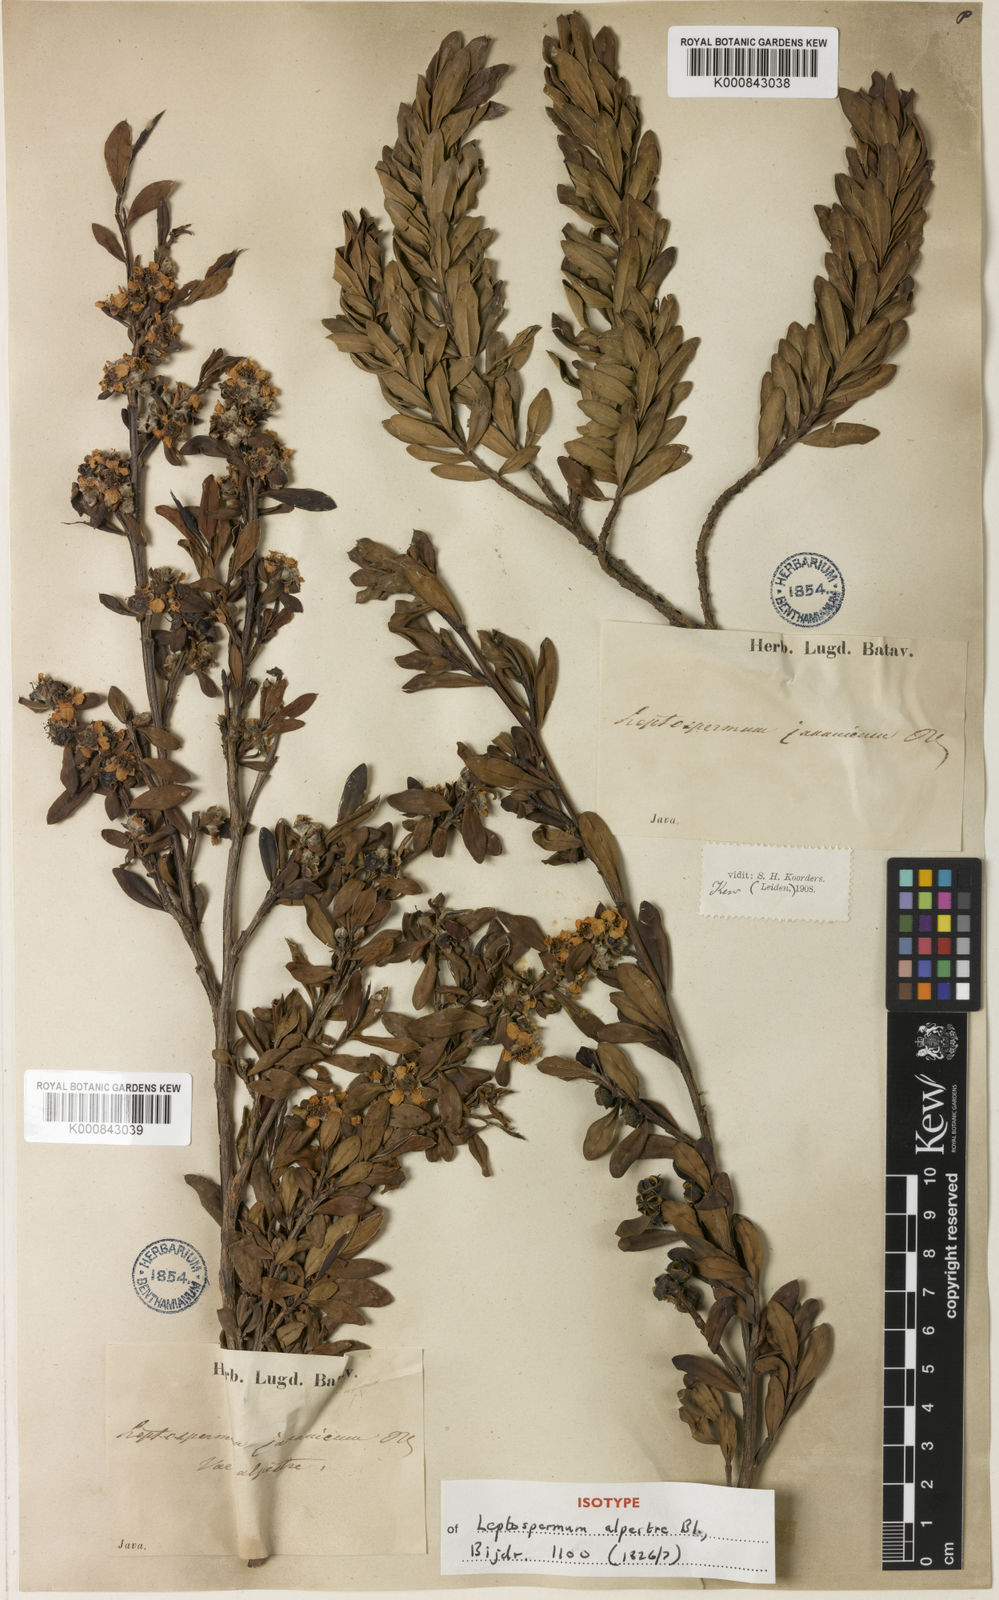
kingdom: Plantae
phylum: Tracheophyta
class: Magnoliopsida
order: Myrtales
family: Myrtaceae
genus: Leptospermum
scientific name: Leptospermum javanicum
